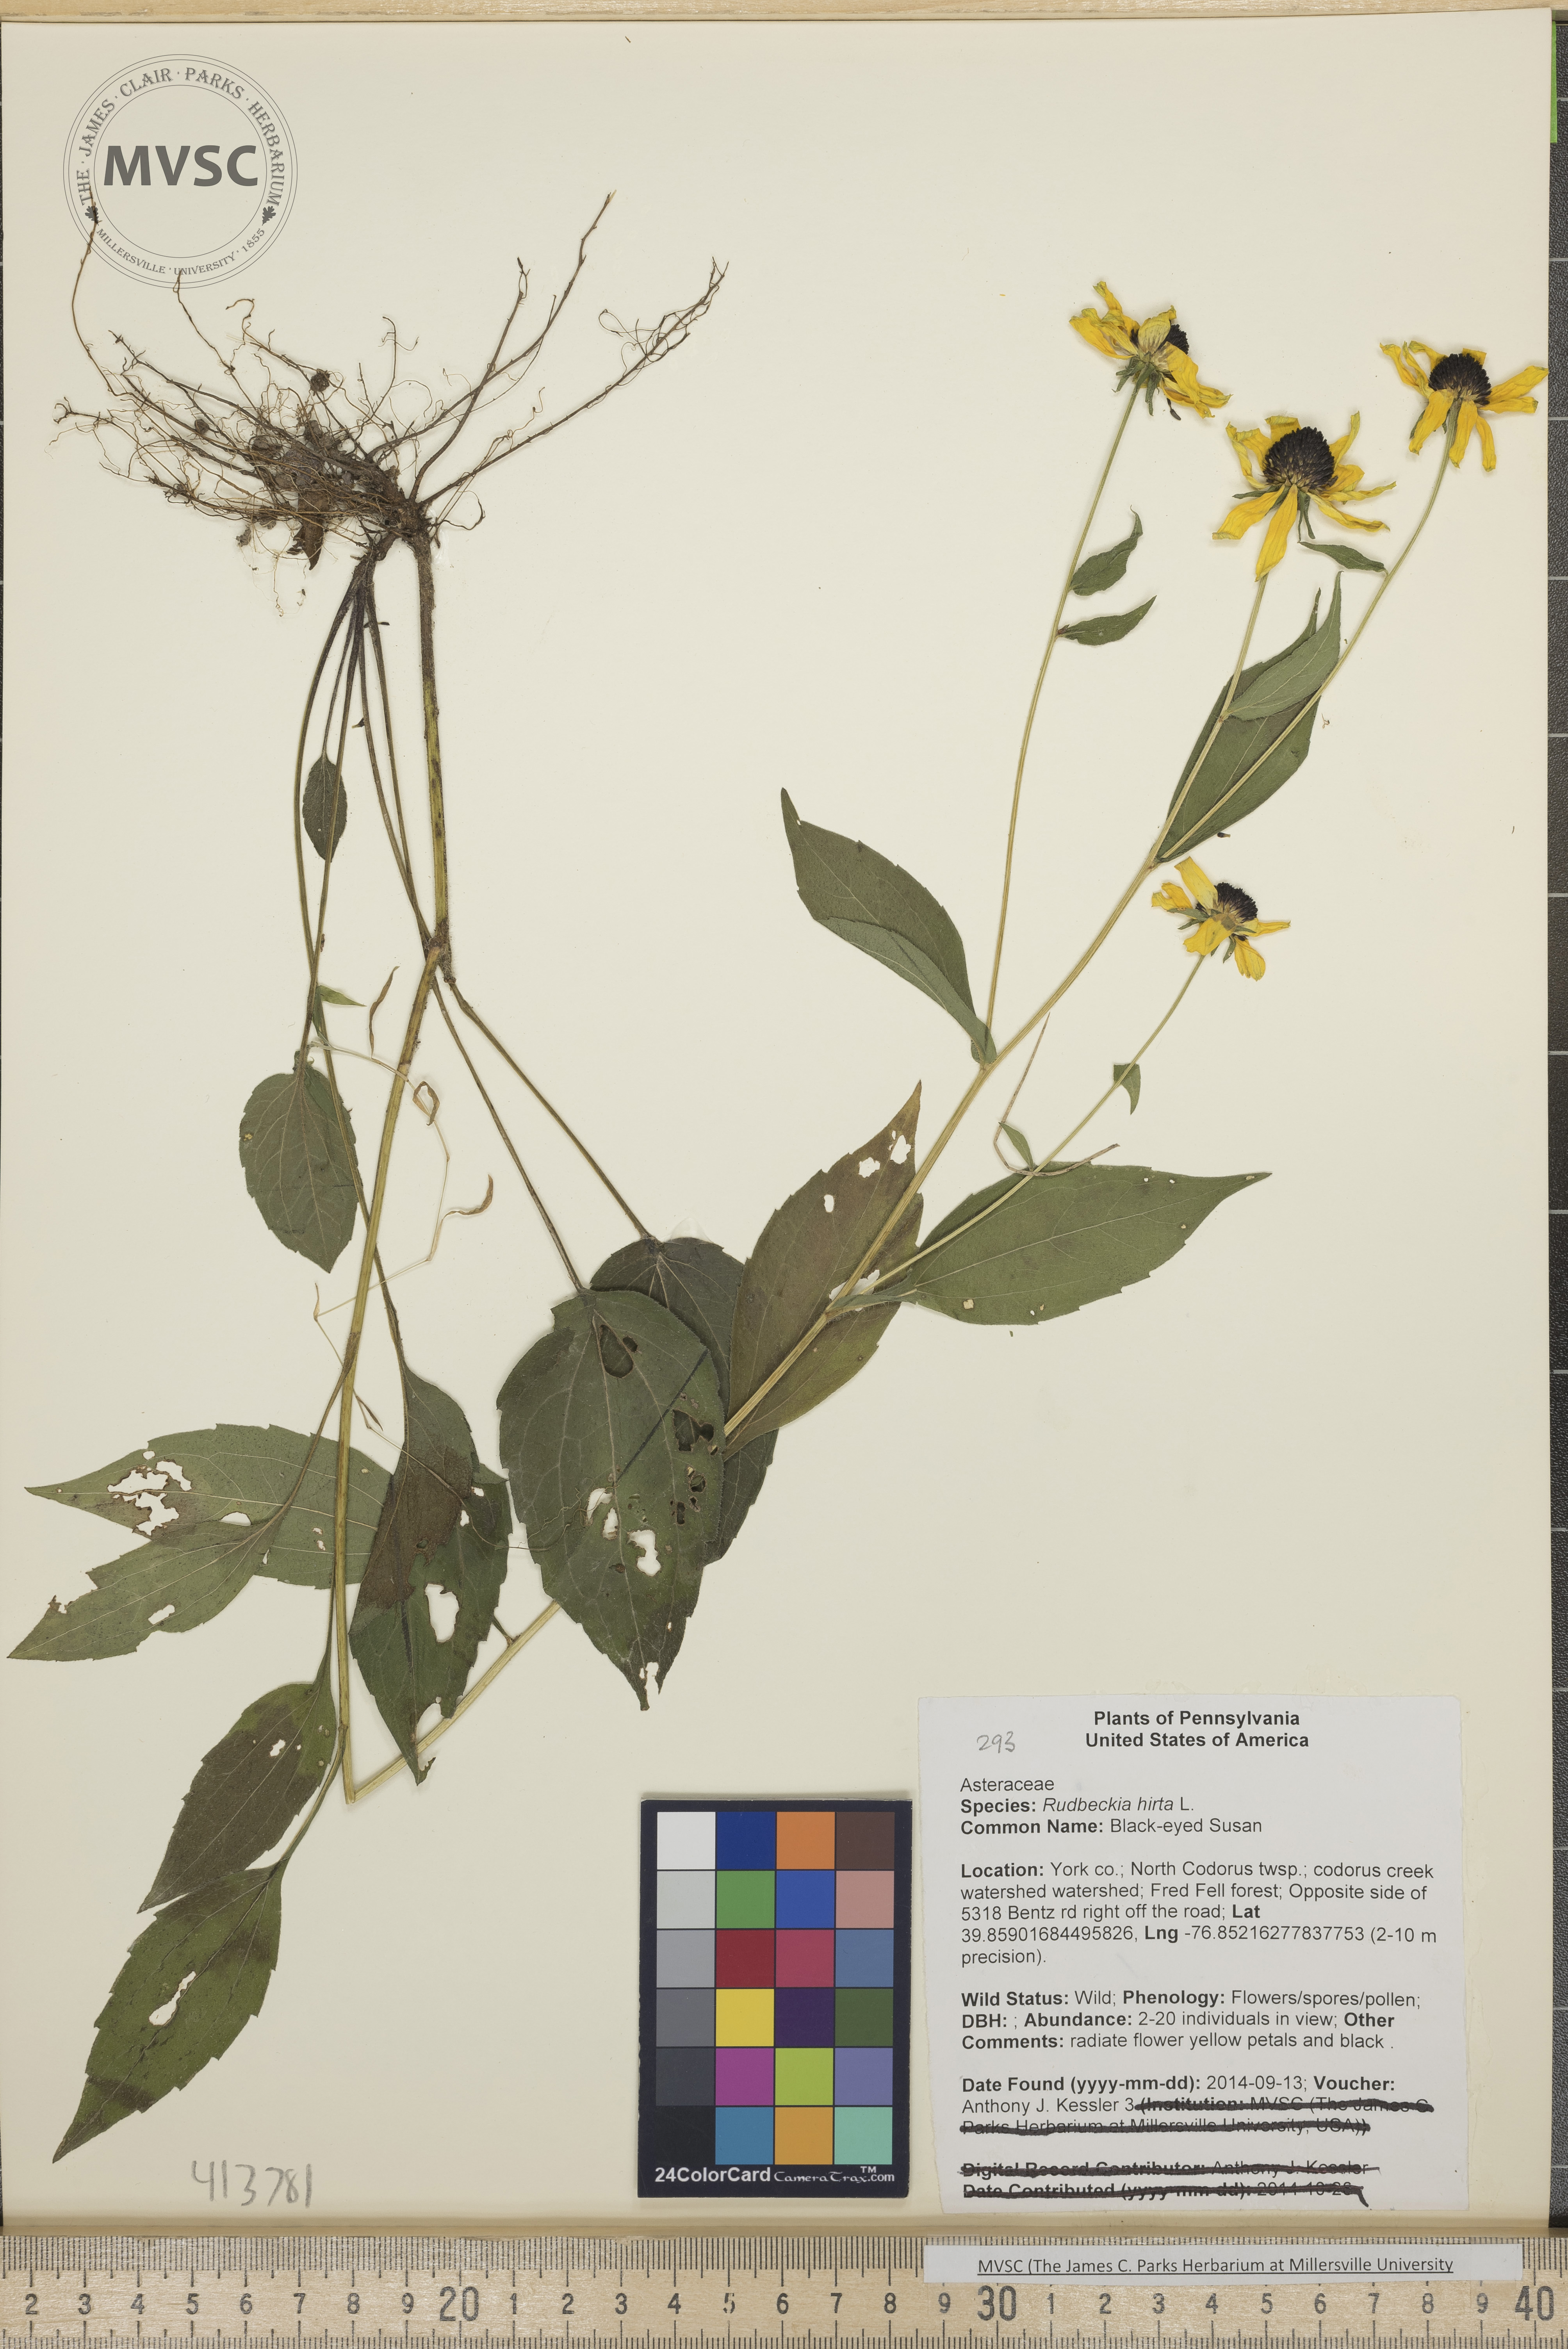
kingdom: Plantae
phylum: Tracheophyta
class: Magnoliopsida
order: Asterales
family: Asteraceae
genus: Rudbeckia
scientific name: Rudbeckia hirta
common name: Black-eyed Susan
